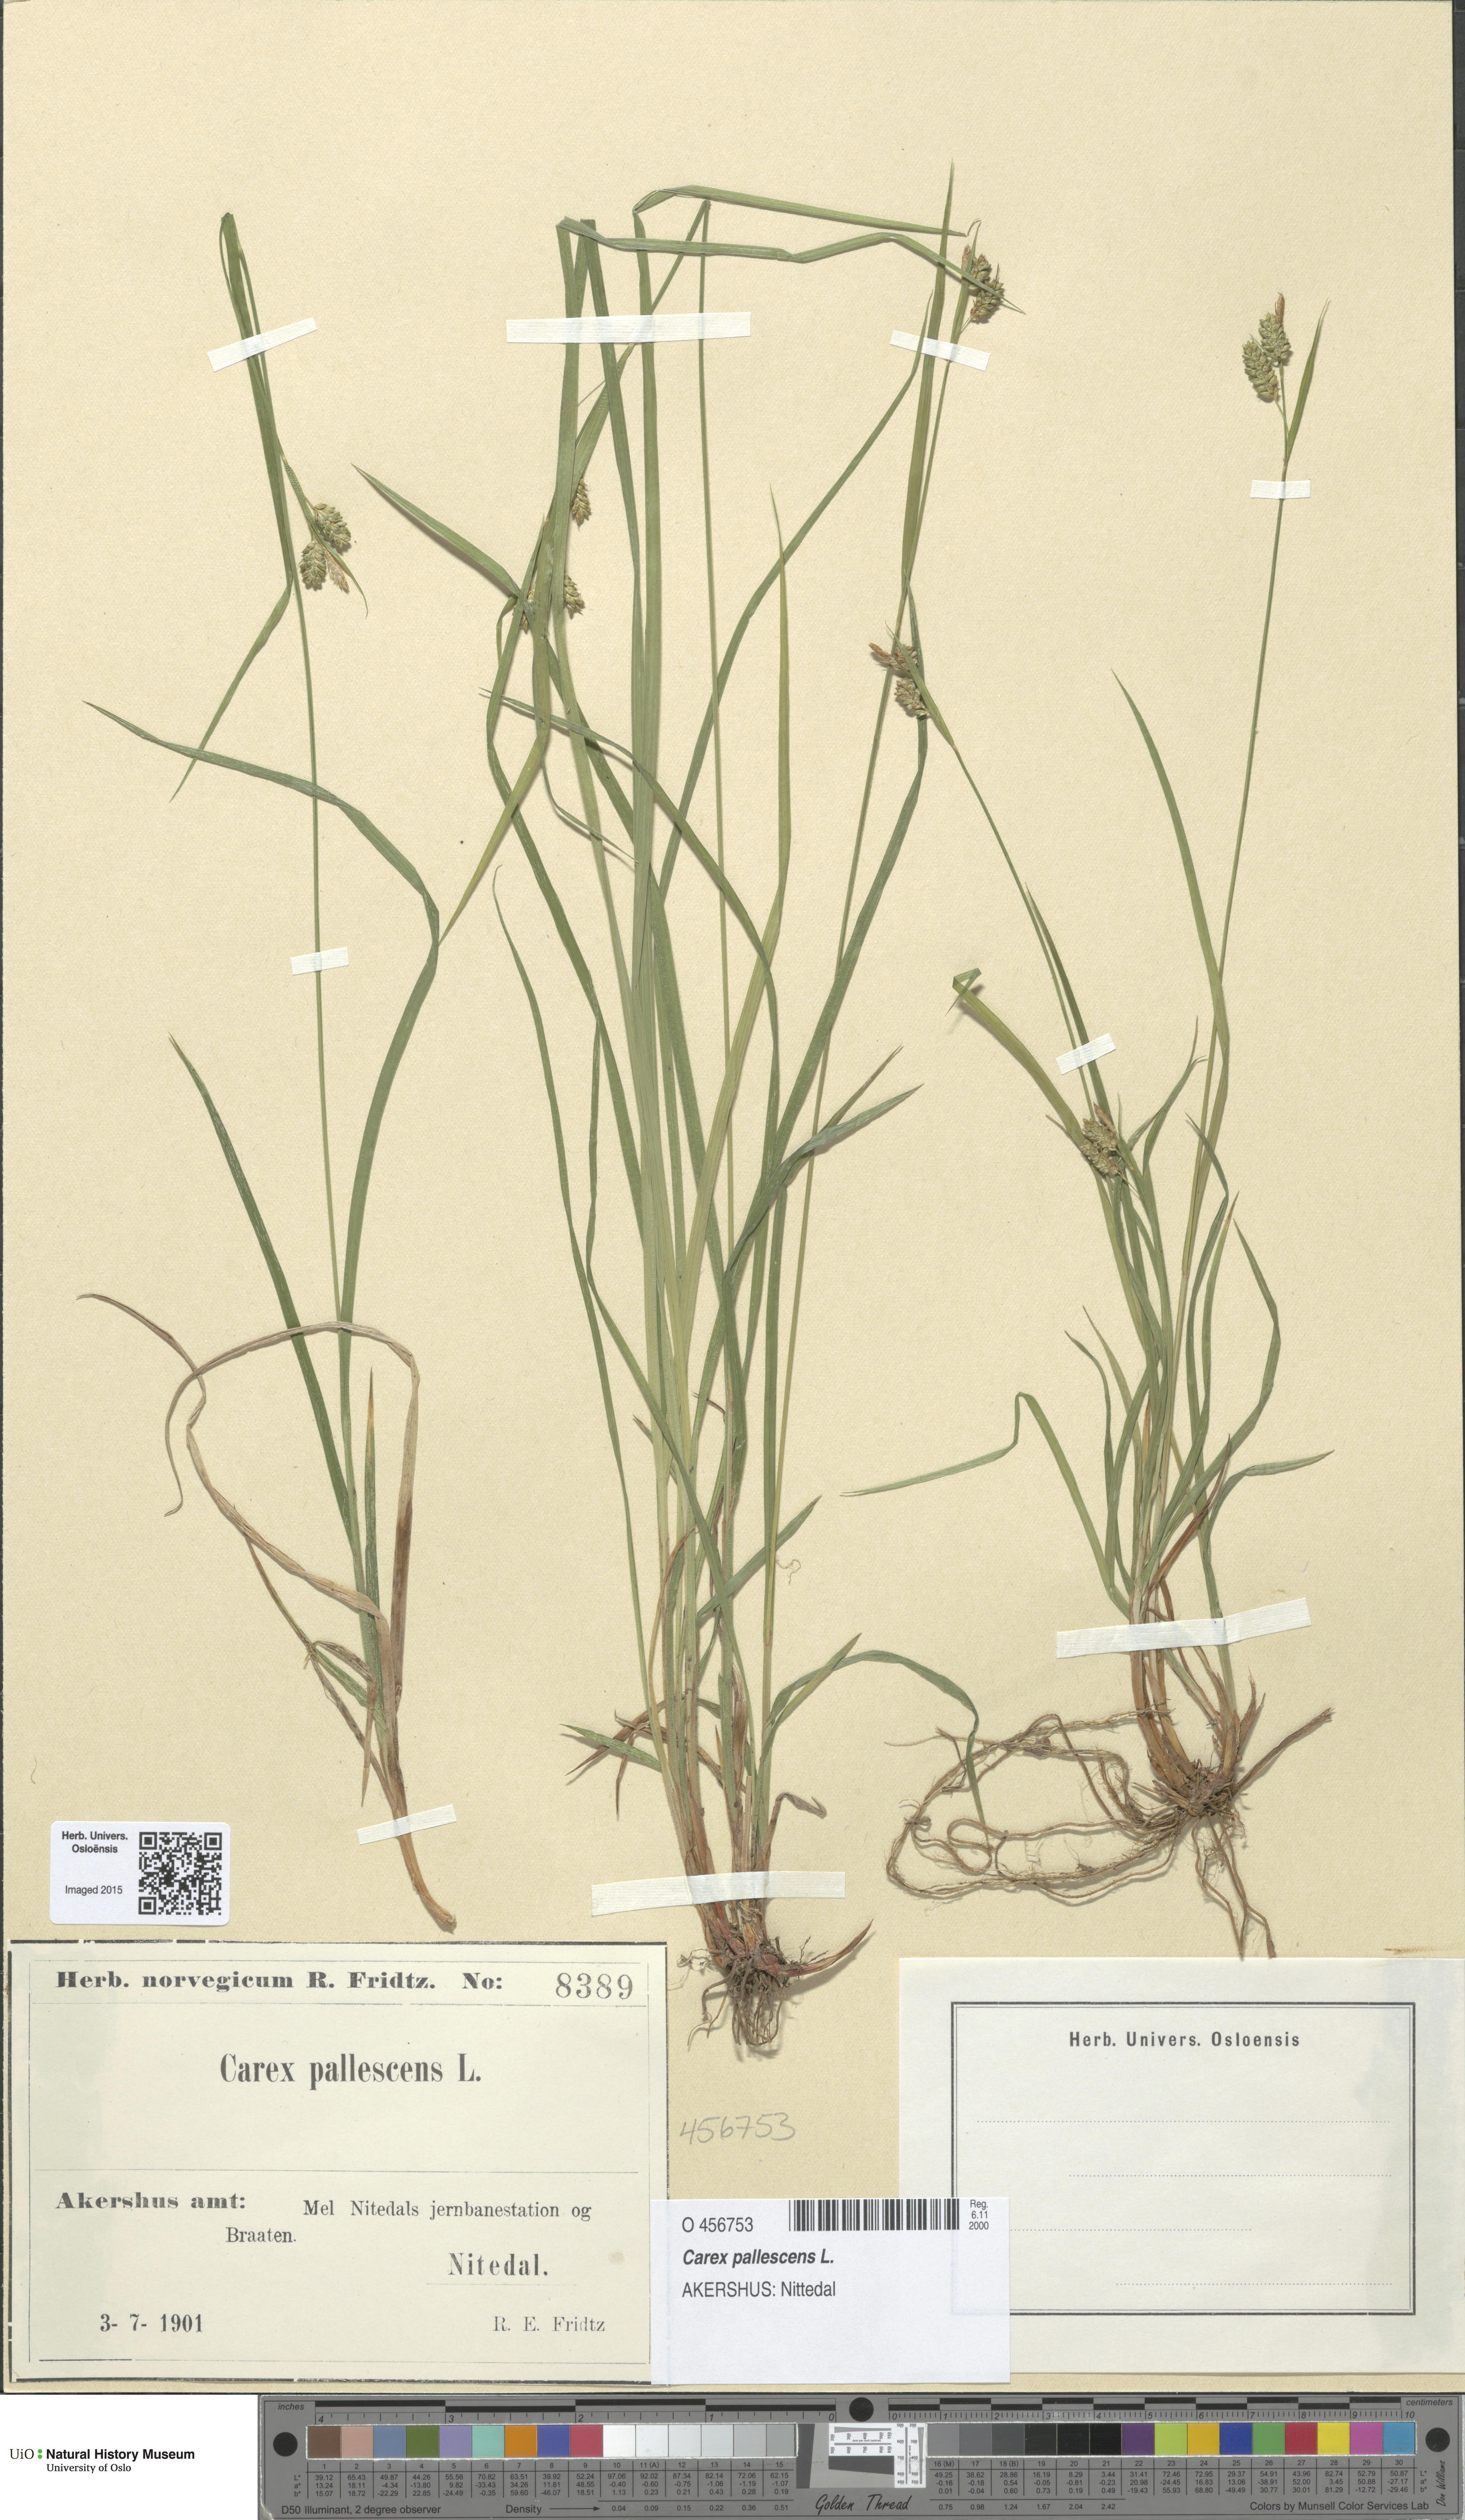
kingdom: Plantae
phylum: Tracheophyta
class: Liliopsida
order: Poales
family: Cyperaceae
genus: Carex
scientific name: Carex pallescens
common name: Pale sedge
